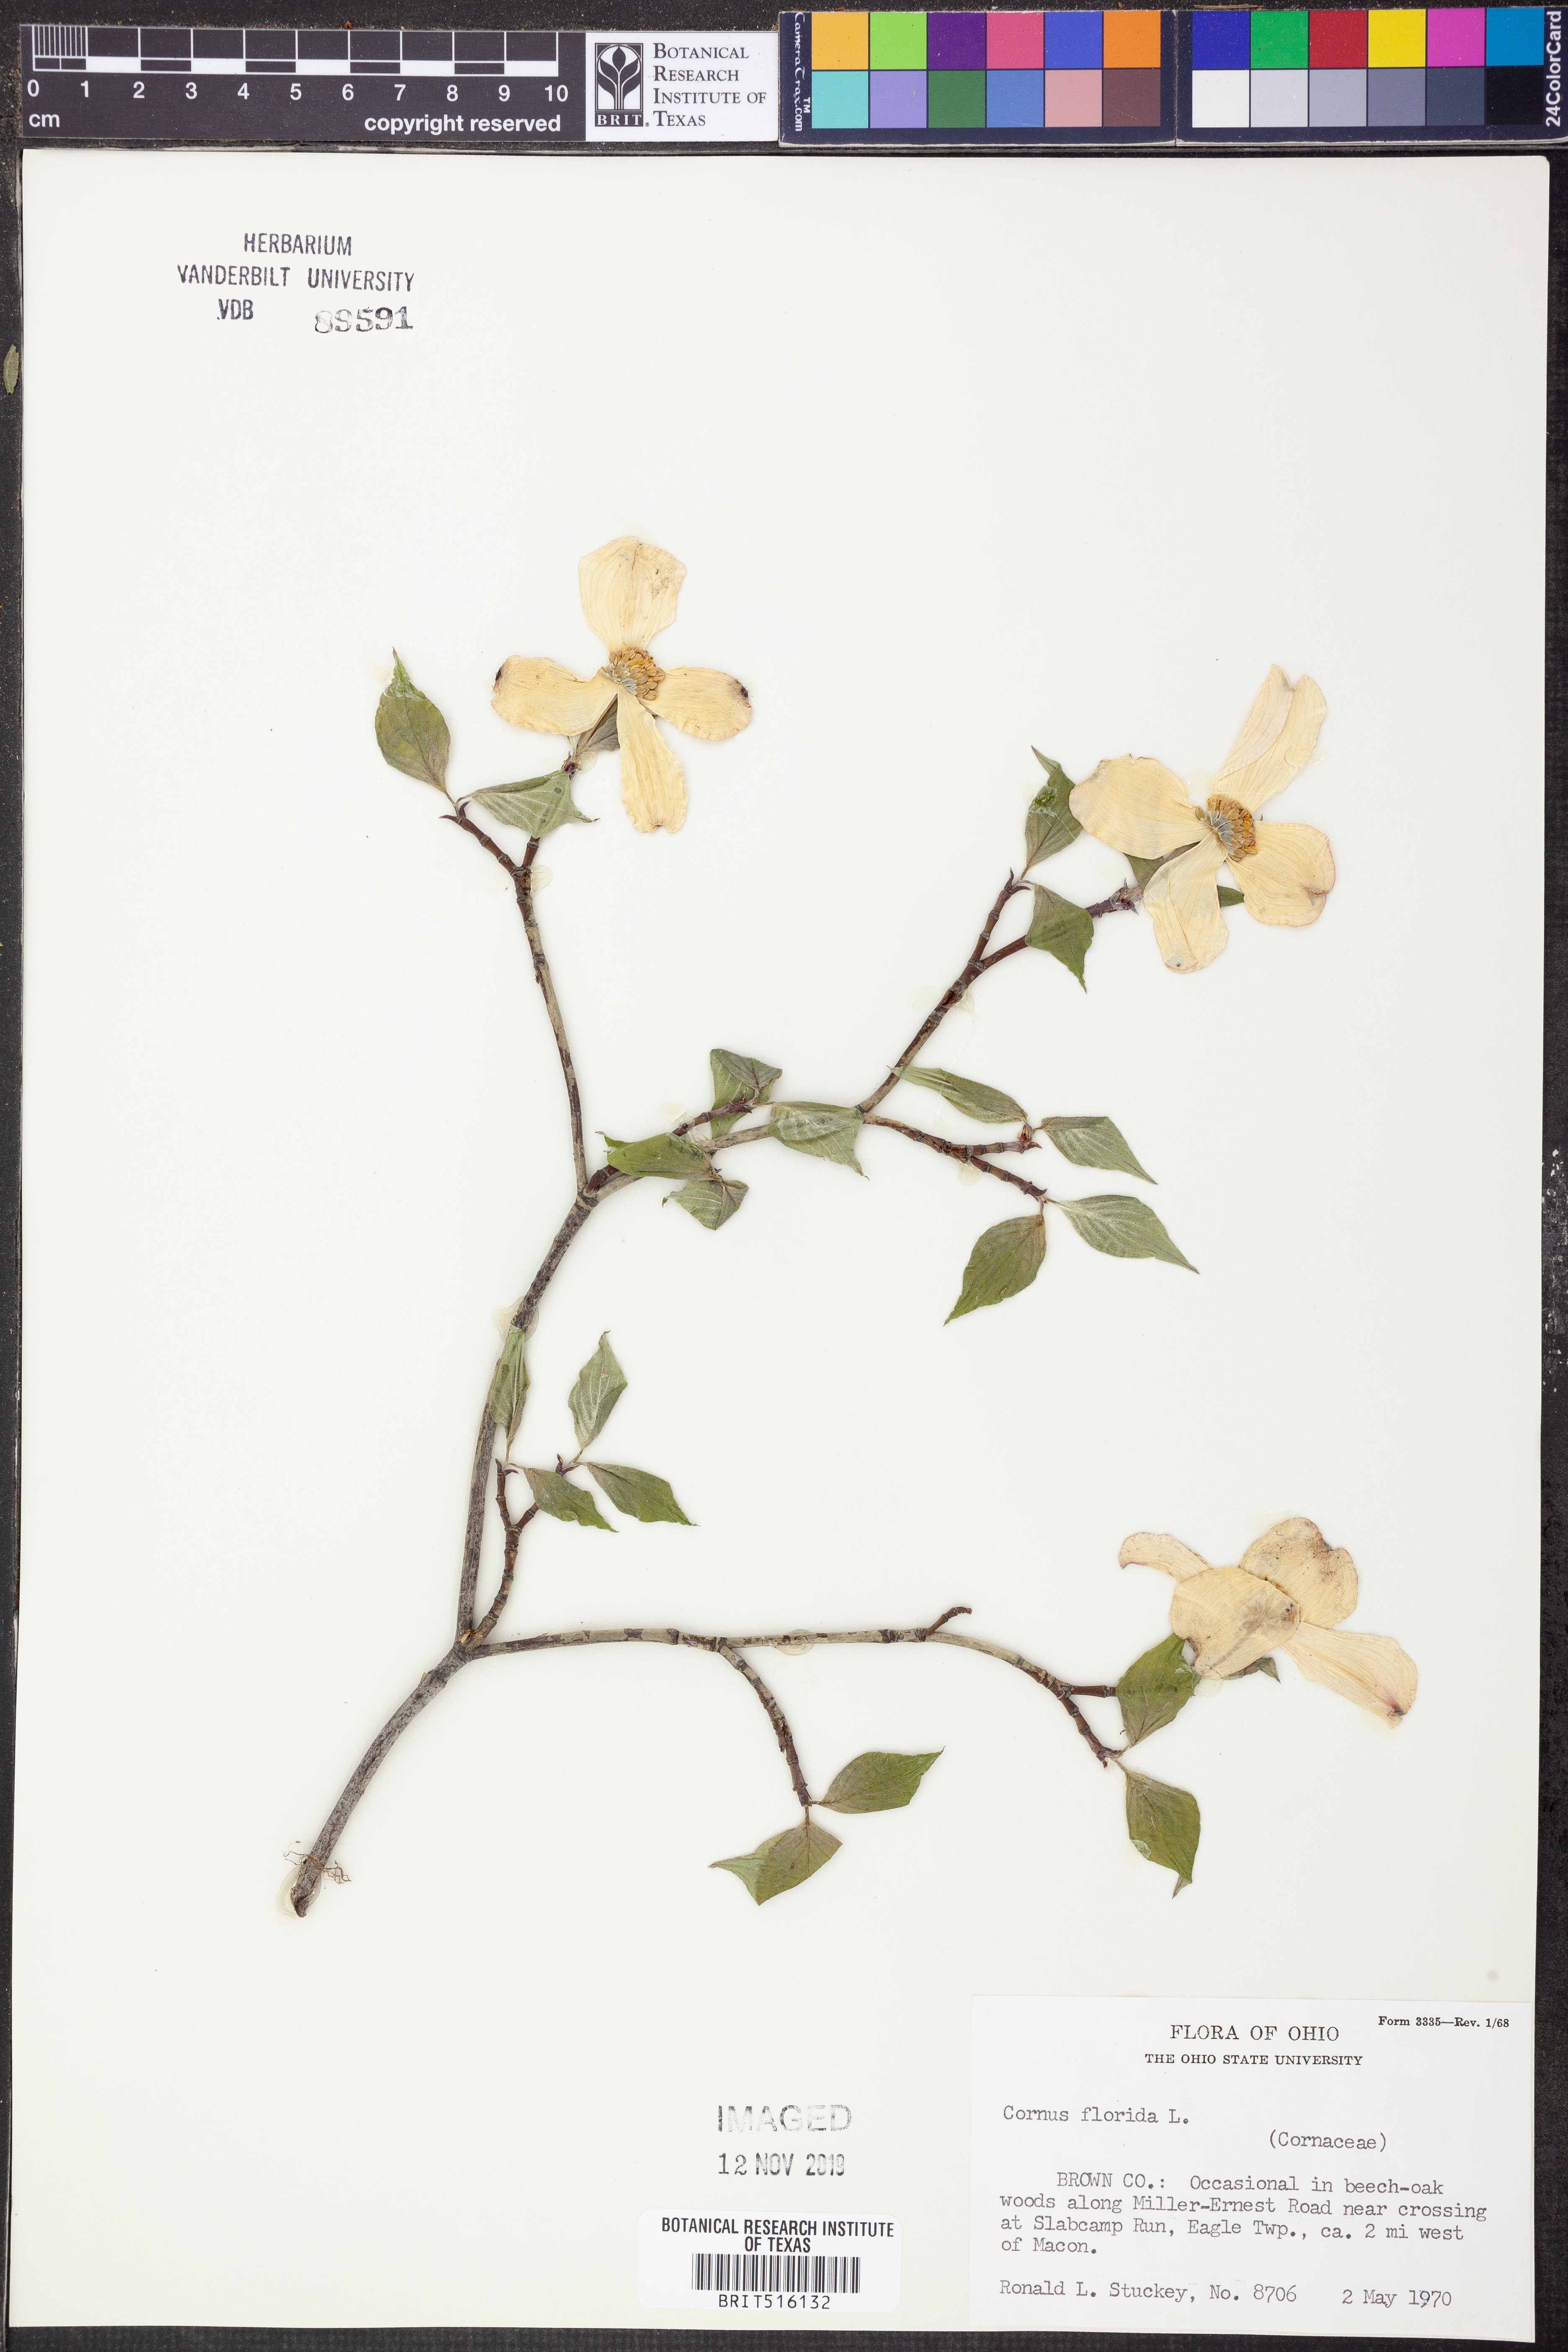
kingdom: Plantae
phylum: Tracheophyta
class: Magnoliopsida
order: Cornales
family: Cornaceae
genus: Cornus
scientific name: Cornus florida
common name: Flowering dogwood
